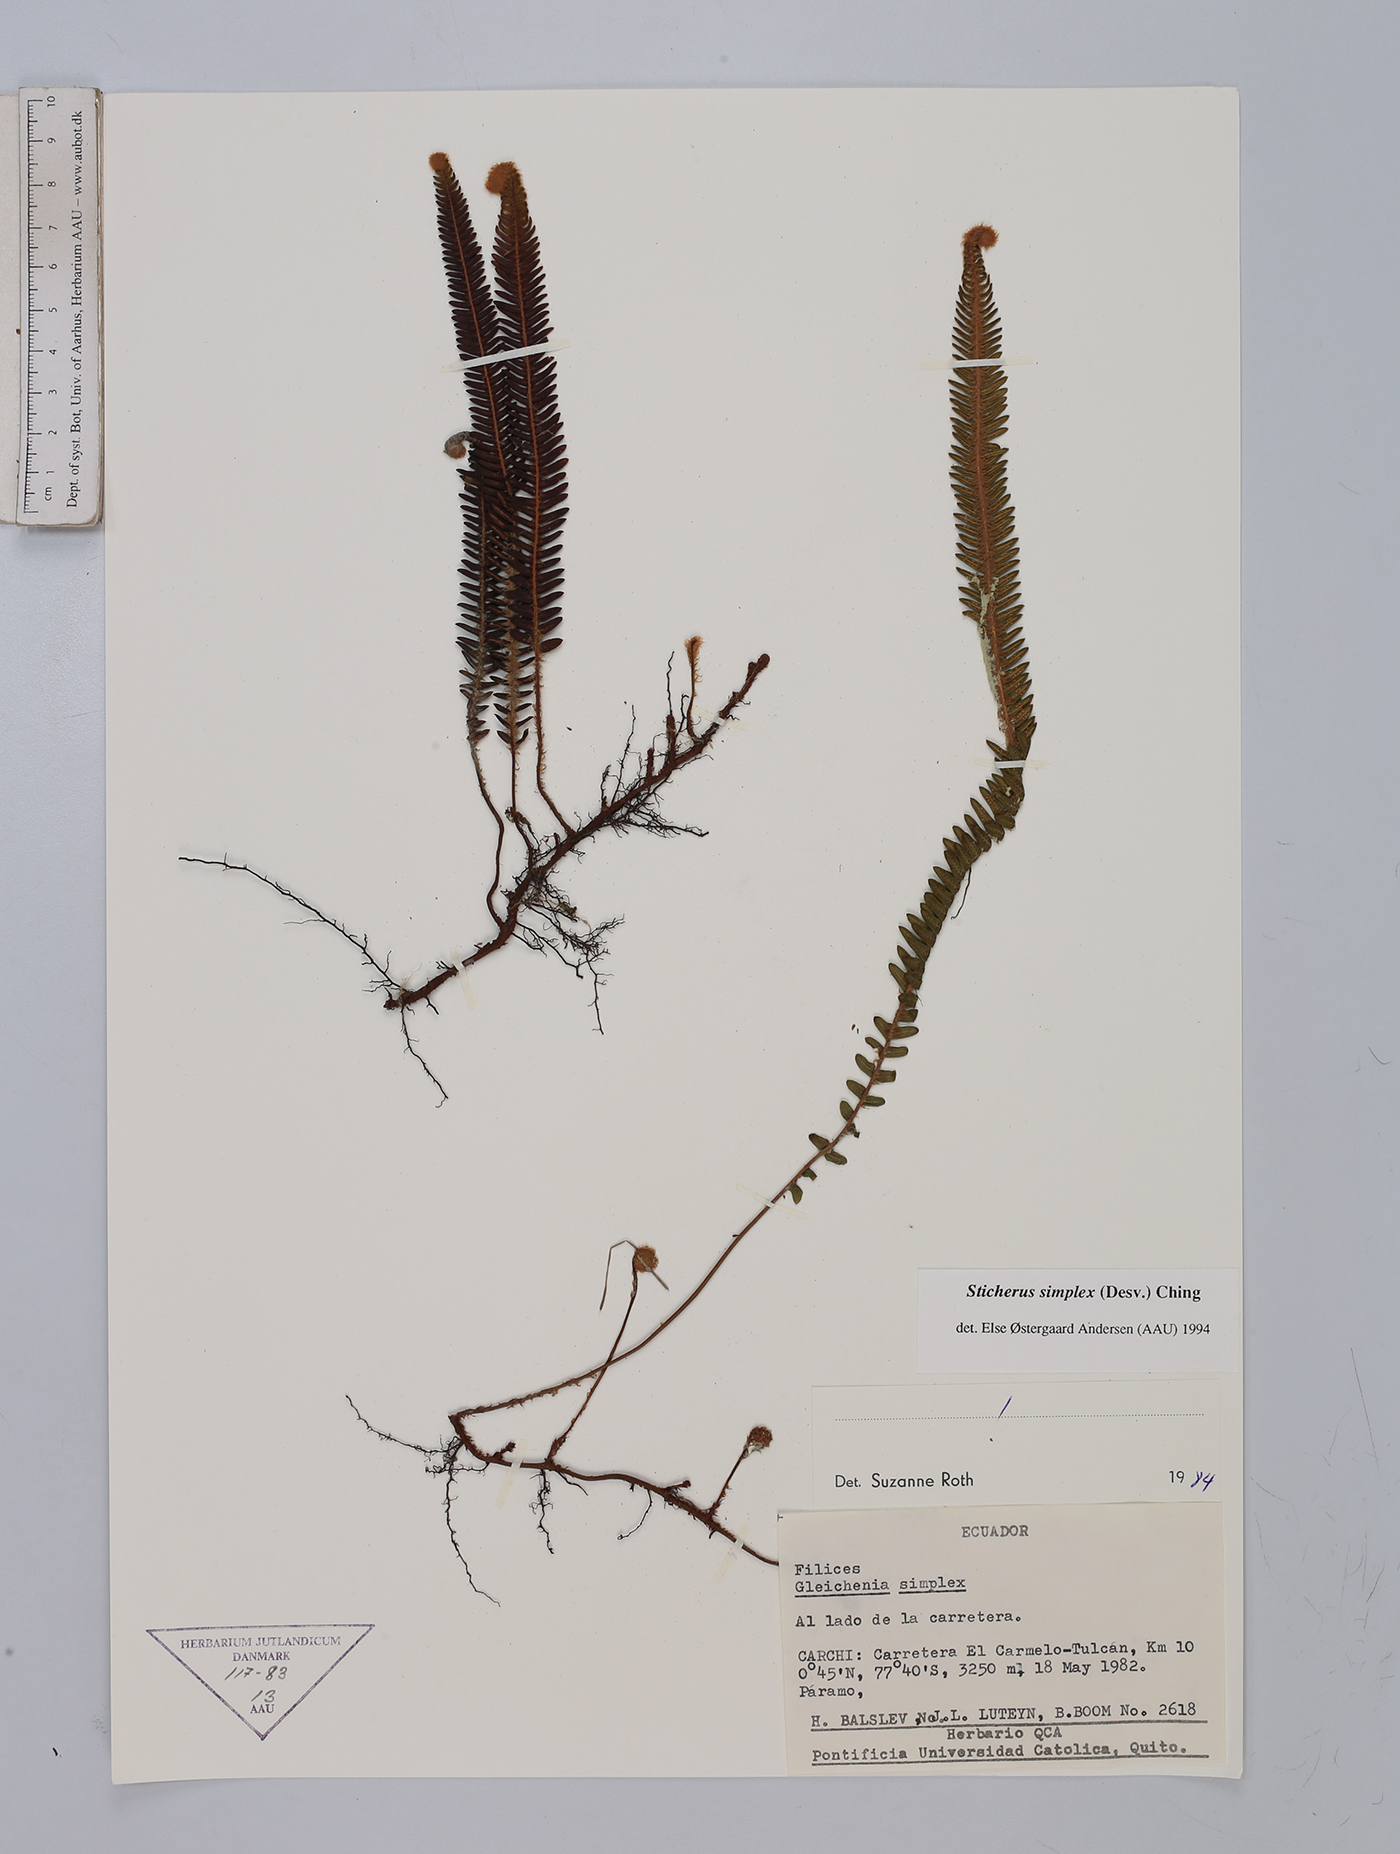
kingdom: Plantae
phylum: Tracheophyta
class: Polypodiopsida
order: Gleicheniales
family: Gleicheniaceae
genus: Sticherus
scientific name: Sticherus simplex
